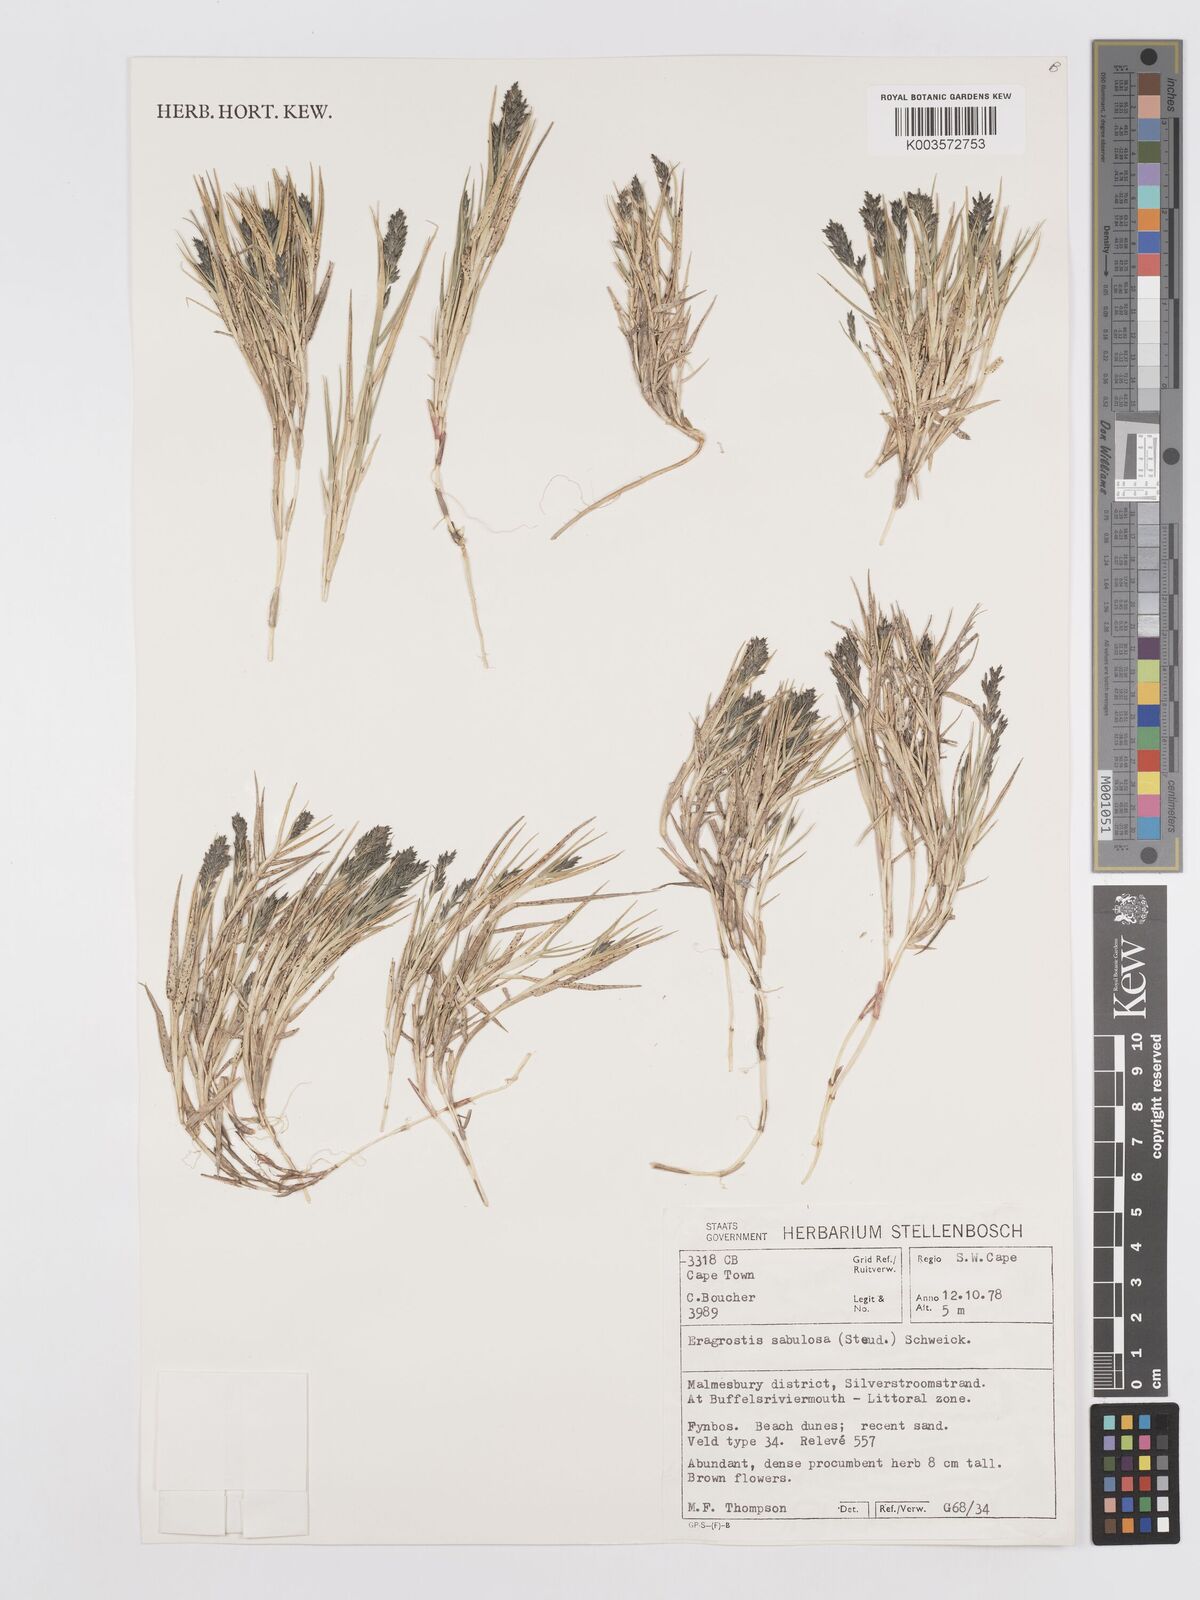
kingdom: Plantae
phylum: Tracheophyta
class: Liliopsida
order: Poales
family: Poaceae
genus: Eragrostis
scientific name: Eragrostis sabulosa
